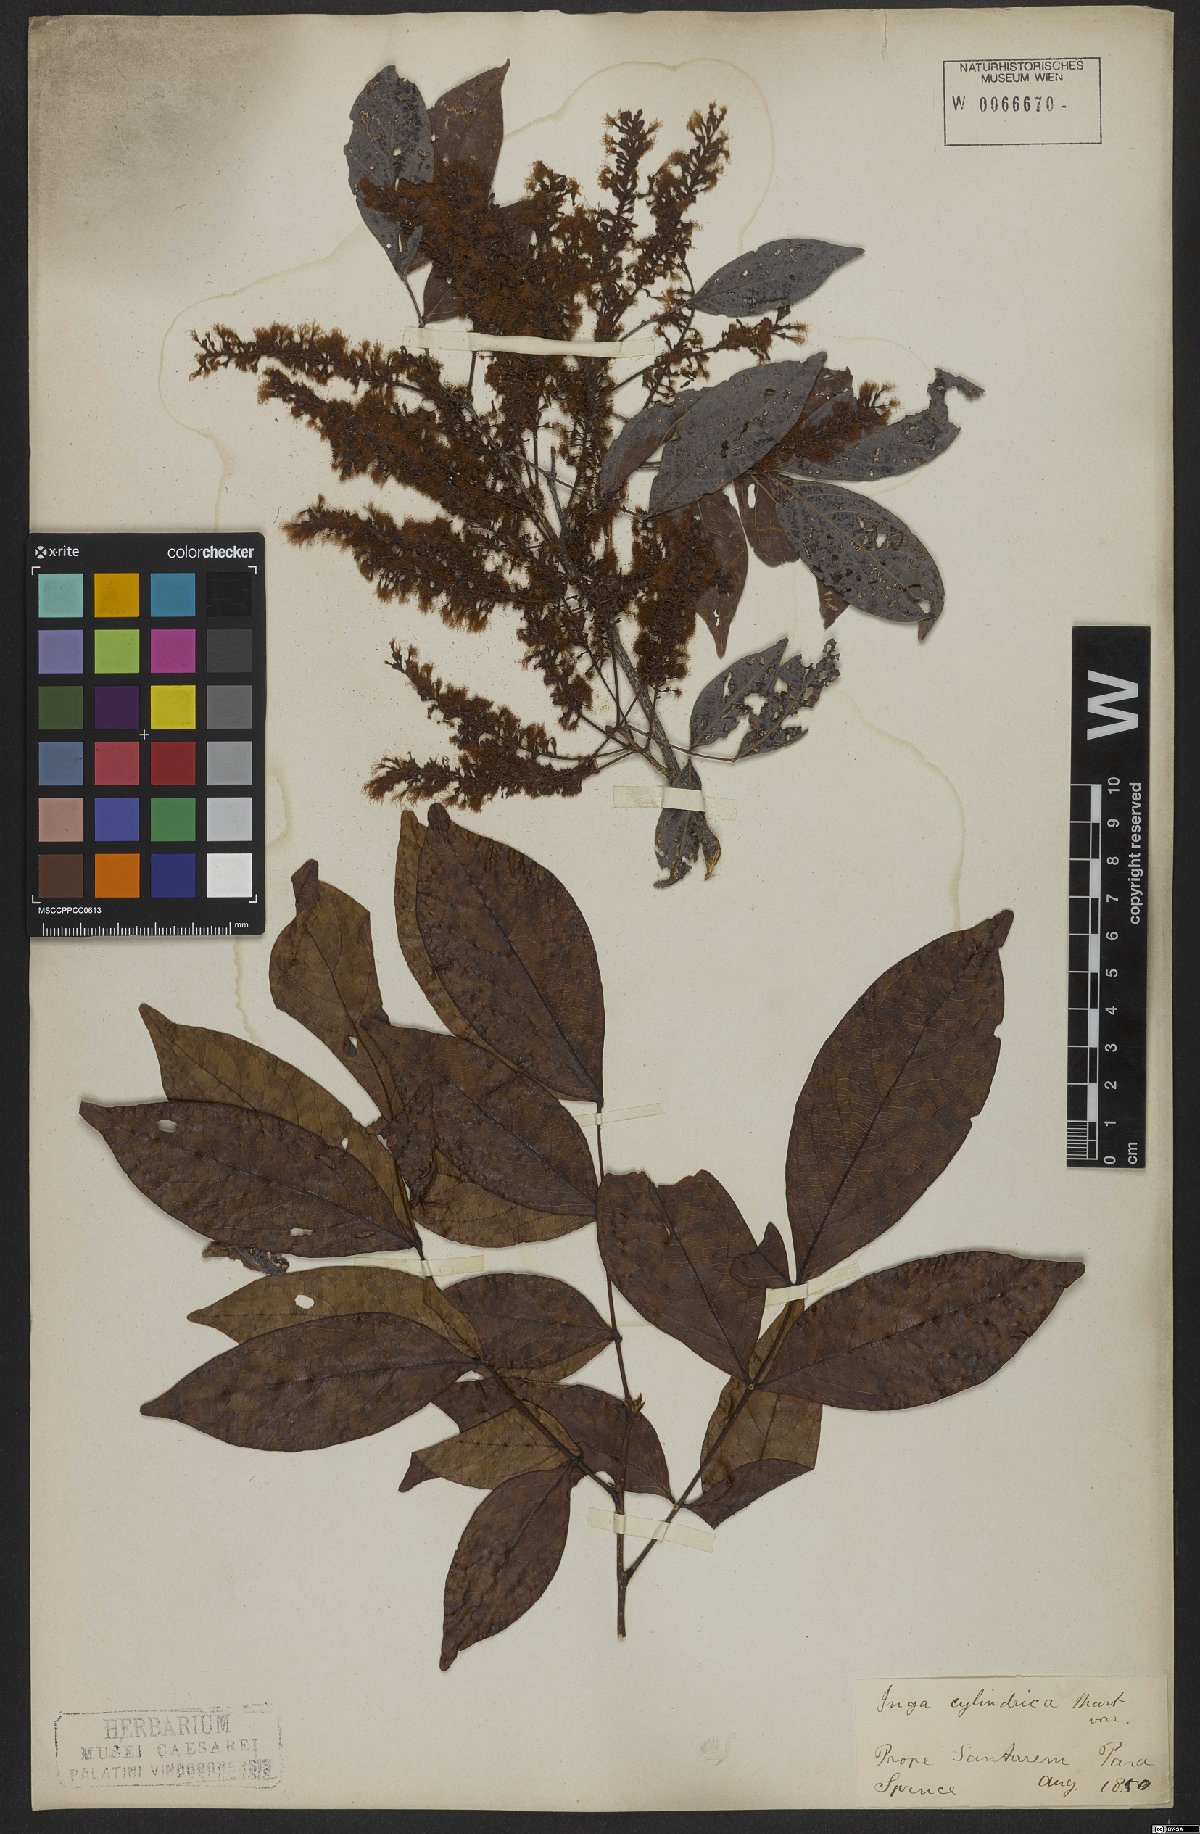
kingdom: Plantae
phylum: Tracheophyta
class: Magnoliopsida
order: Fabales
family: Fabaceae
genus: Inga
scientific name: Inga cylindrica
